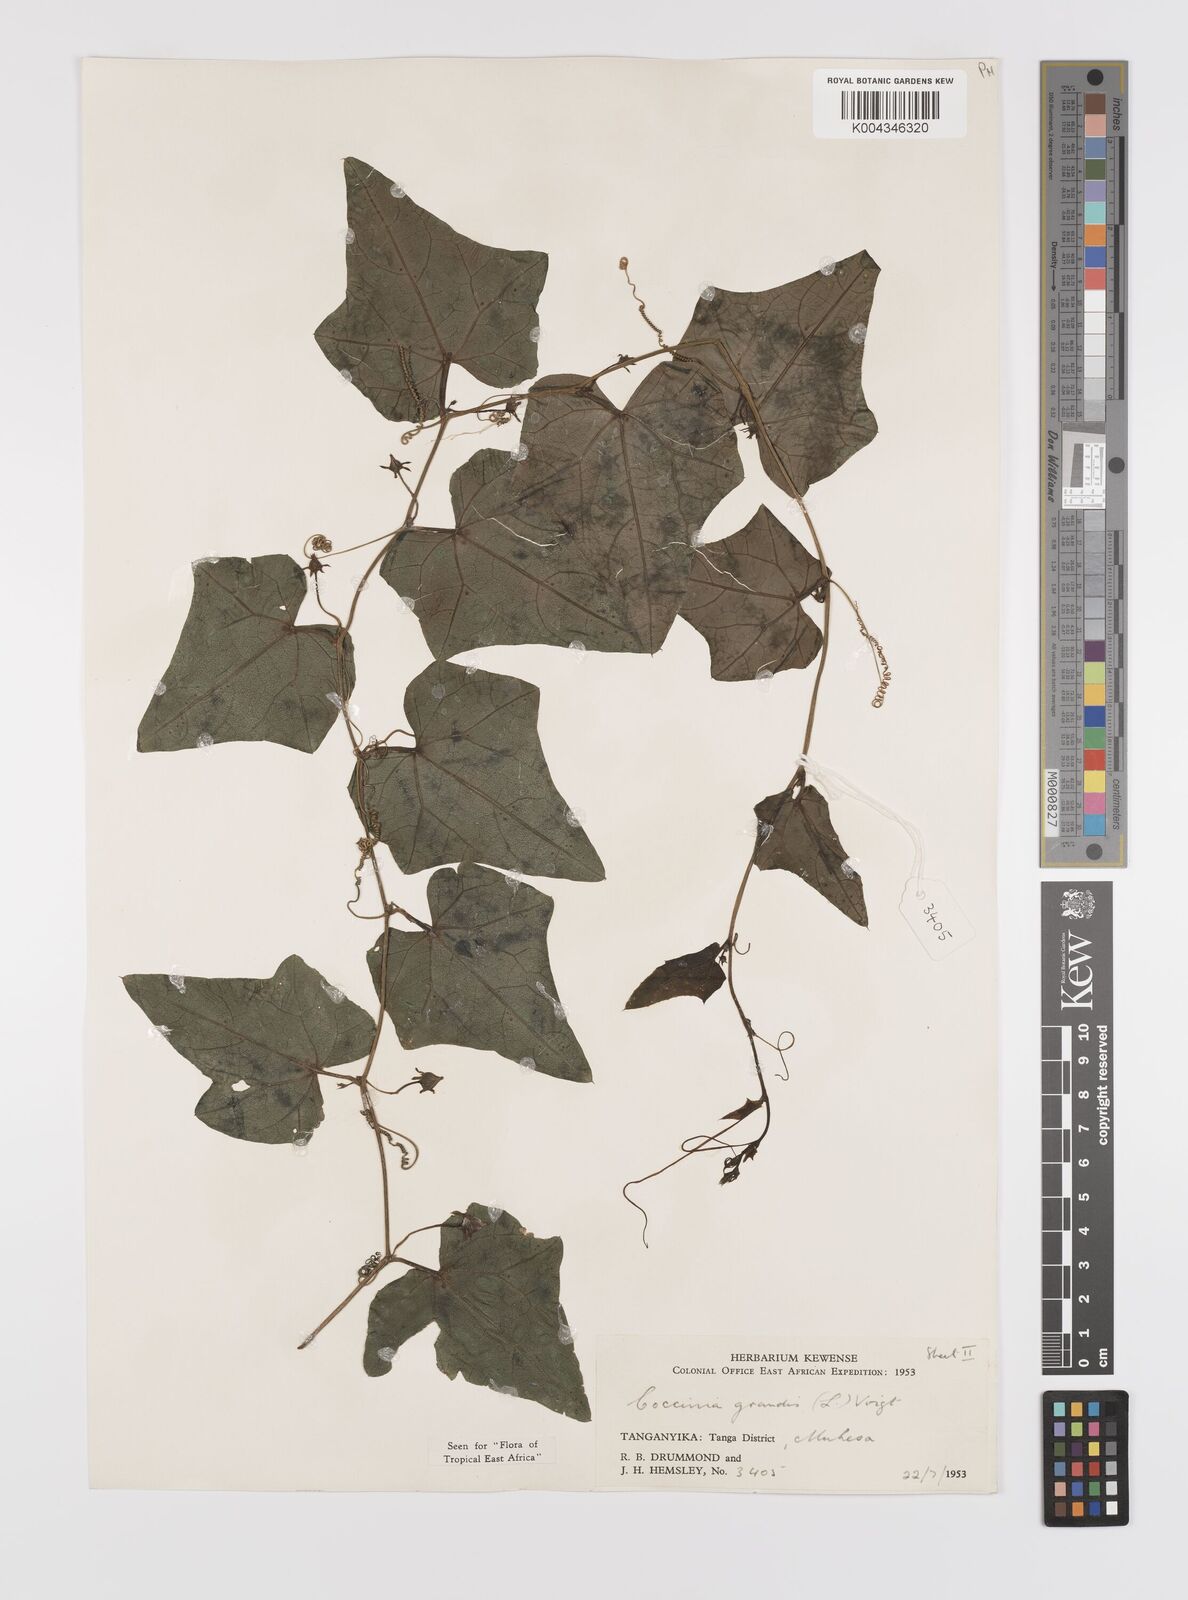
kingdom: Plantae
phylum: Tracheophyta
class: Magnoliopsida
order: Cucurbitales
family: Cucurbitaceae
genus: Coccinia
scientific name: Coccinia grandis
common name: Ivy gourd
